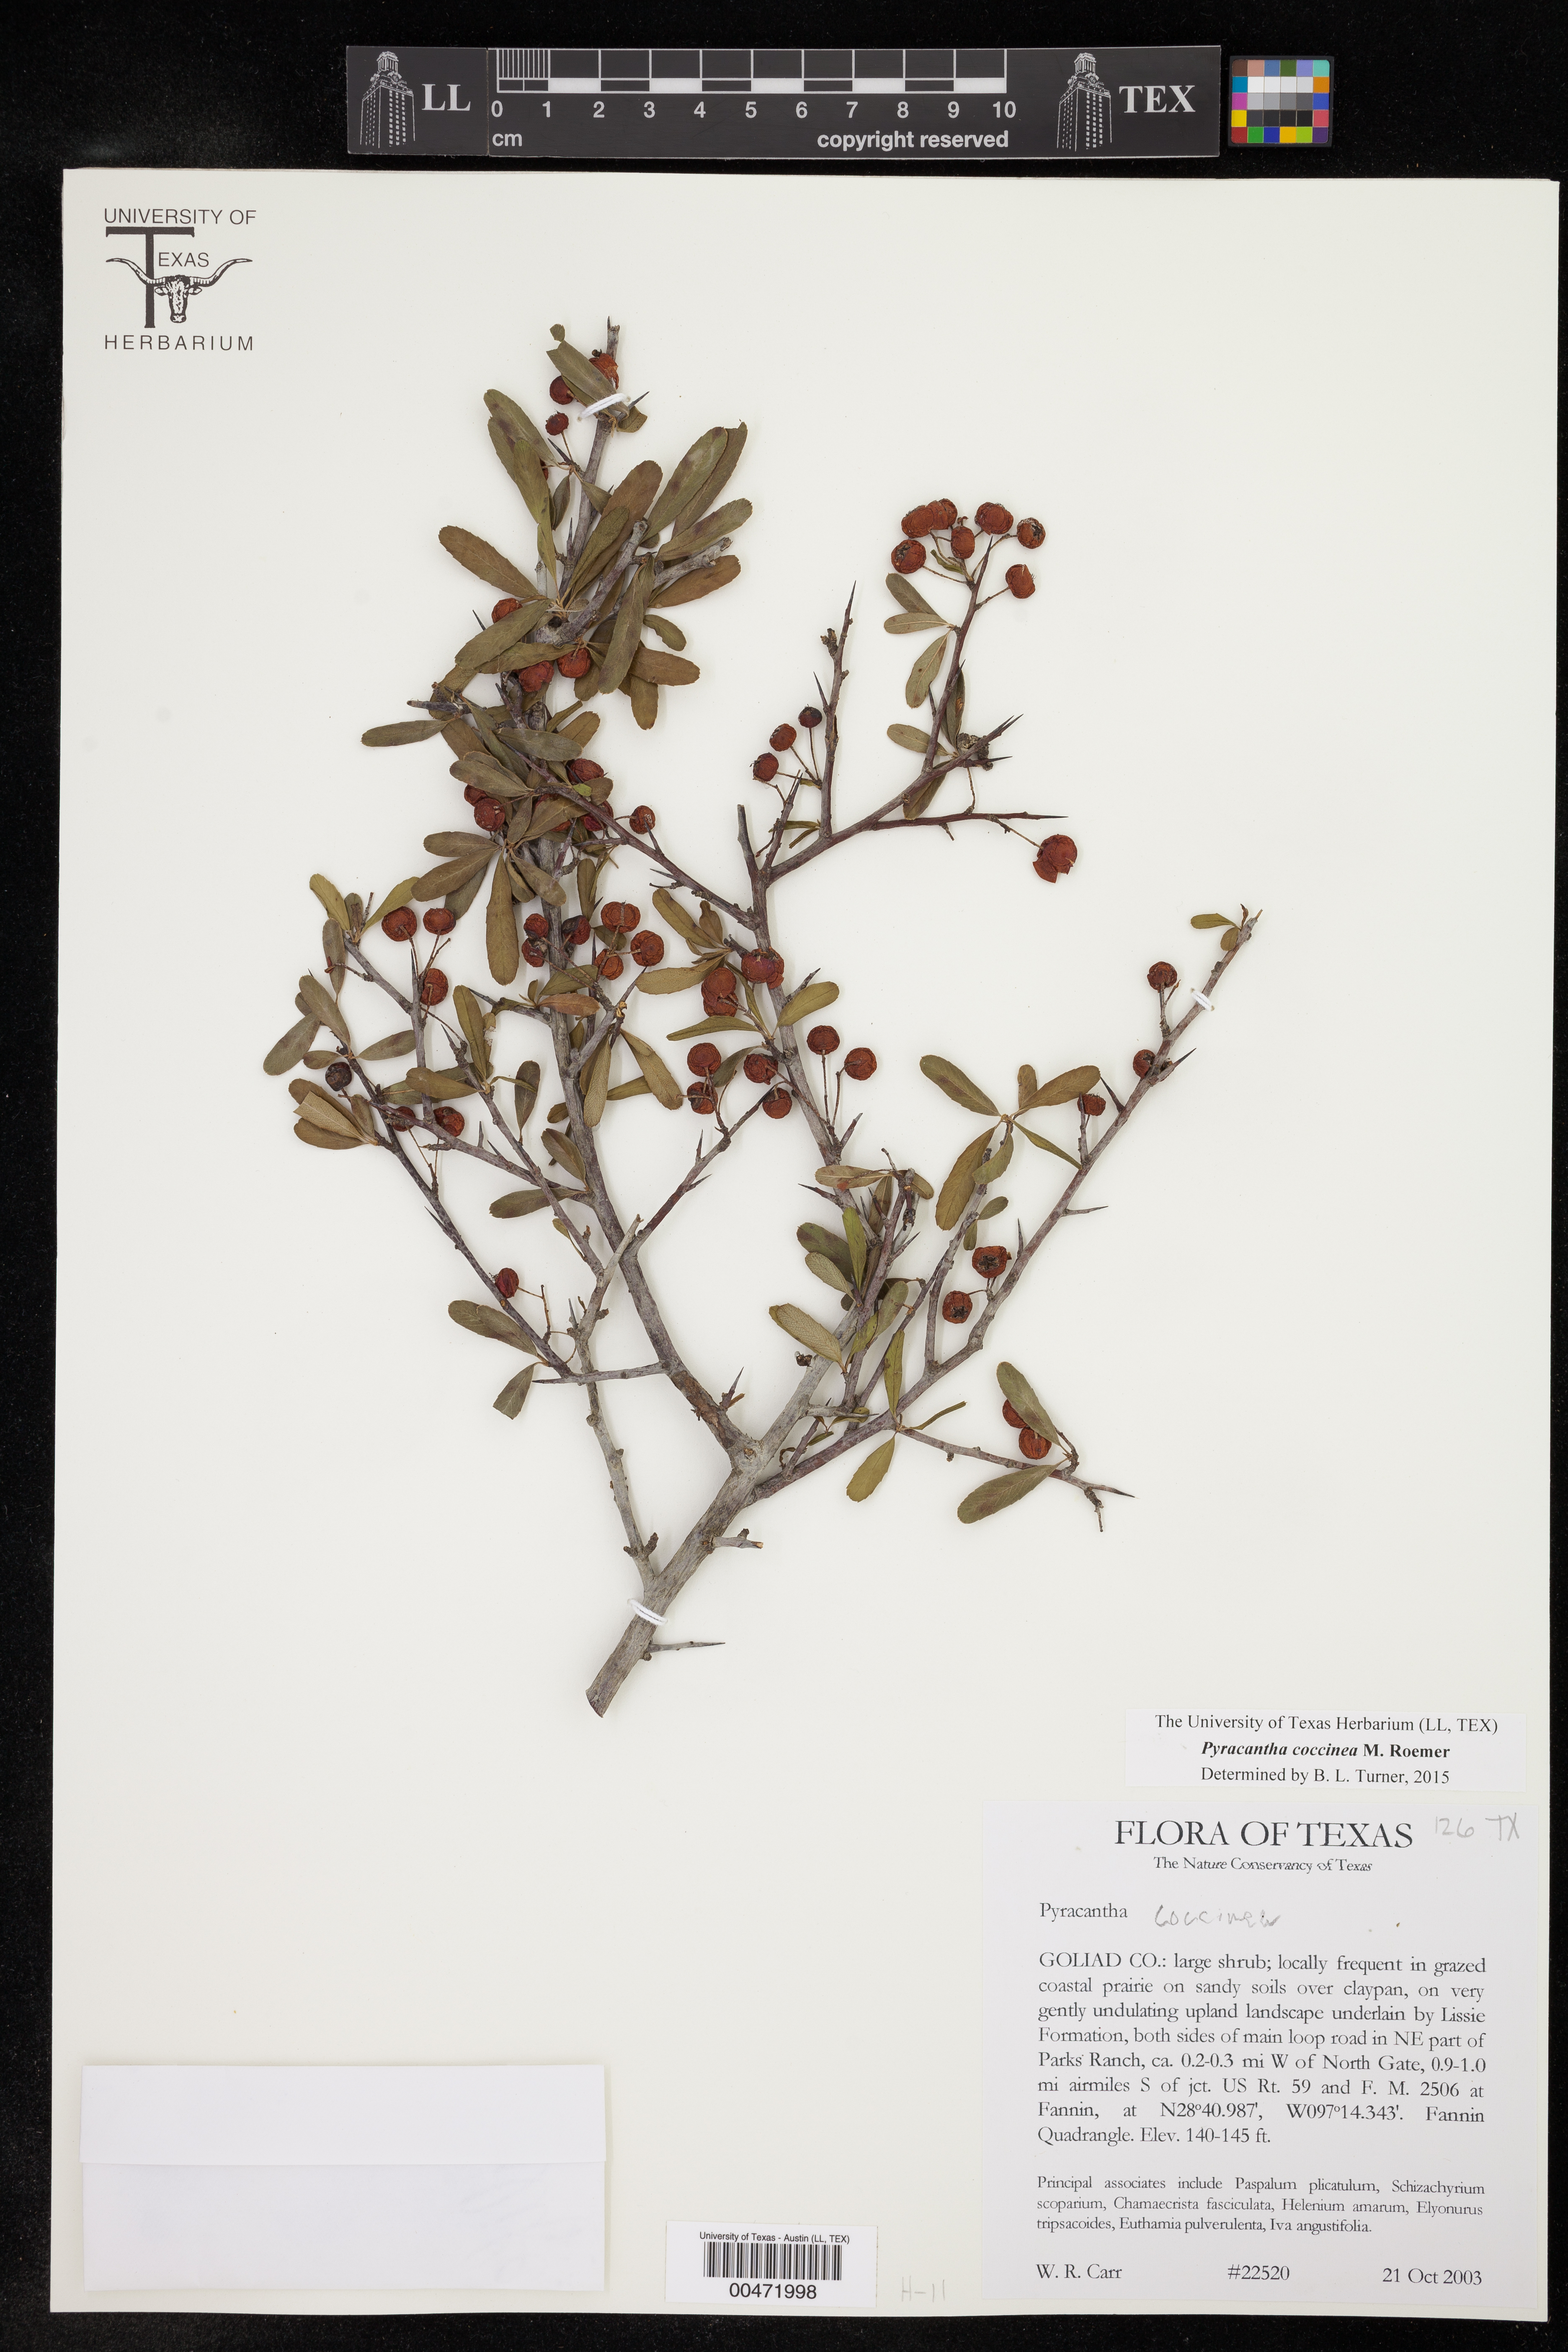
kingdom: Plantae
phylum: Tracheophyta
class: Magnoliopsida
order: Rosales
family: Rosaceae
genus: Pyracantha
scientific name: Pyracantha coccinea
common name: Firethorn
